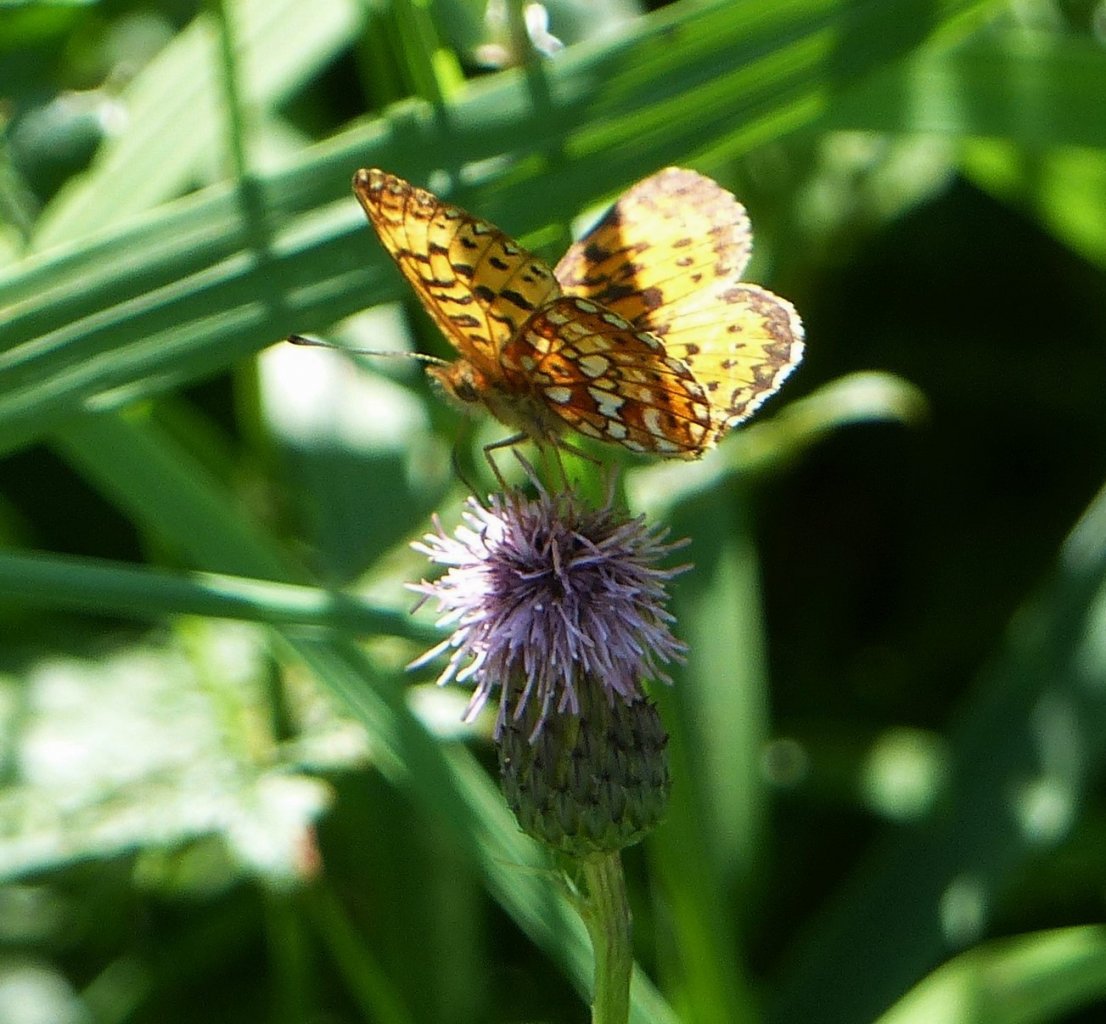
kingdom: Animalia
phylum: Arthropoda
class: Insecta
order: Lepidoptera
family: Nymphalidae
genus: Boloria
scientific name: Boloria selene
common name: Silver-bordered Fritillary
